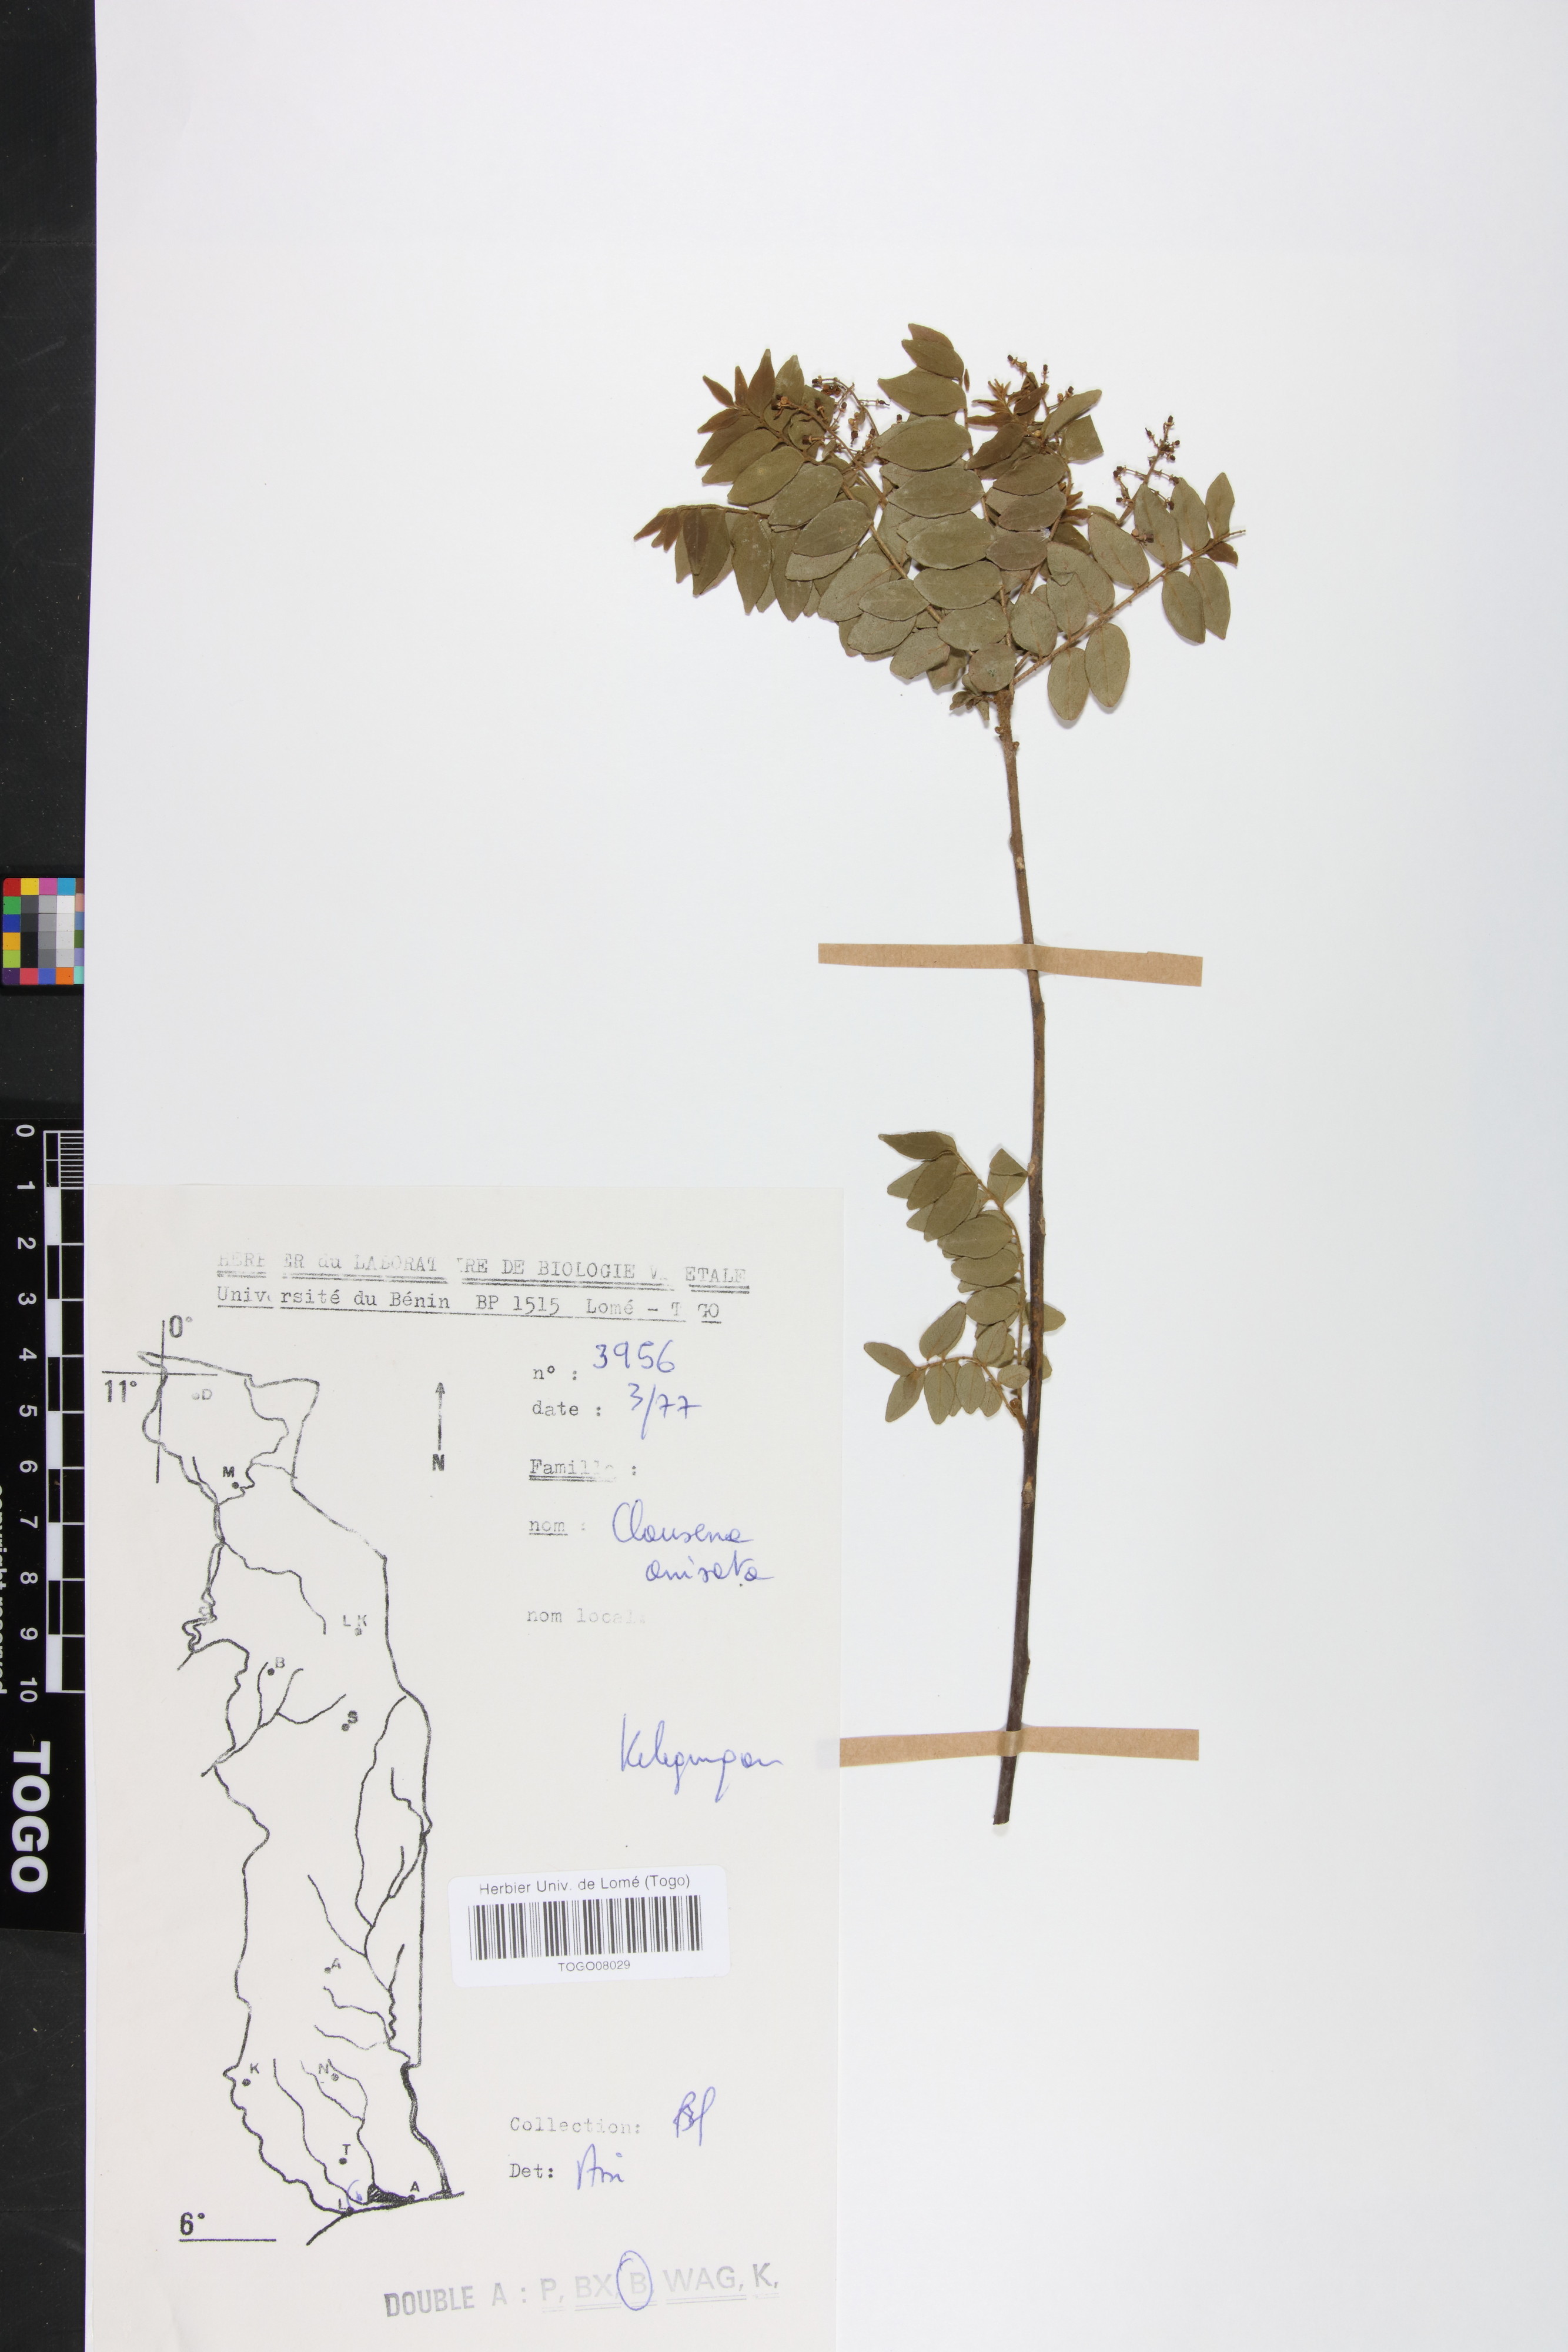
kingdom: Plantae
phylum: Tracheophyta
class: Magnoliopsida
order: Sapindales
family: Rutaceae
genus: Clausena
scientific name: Clausena anisata
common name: Horsewood
